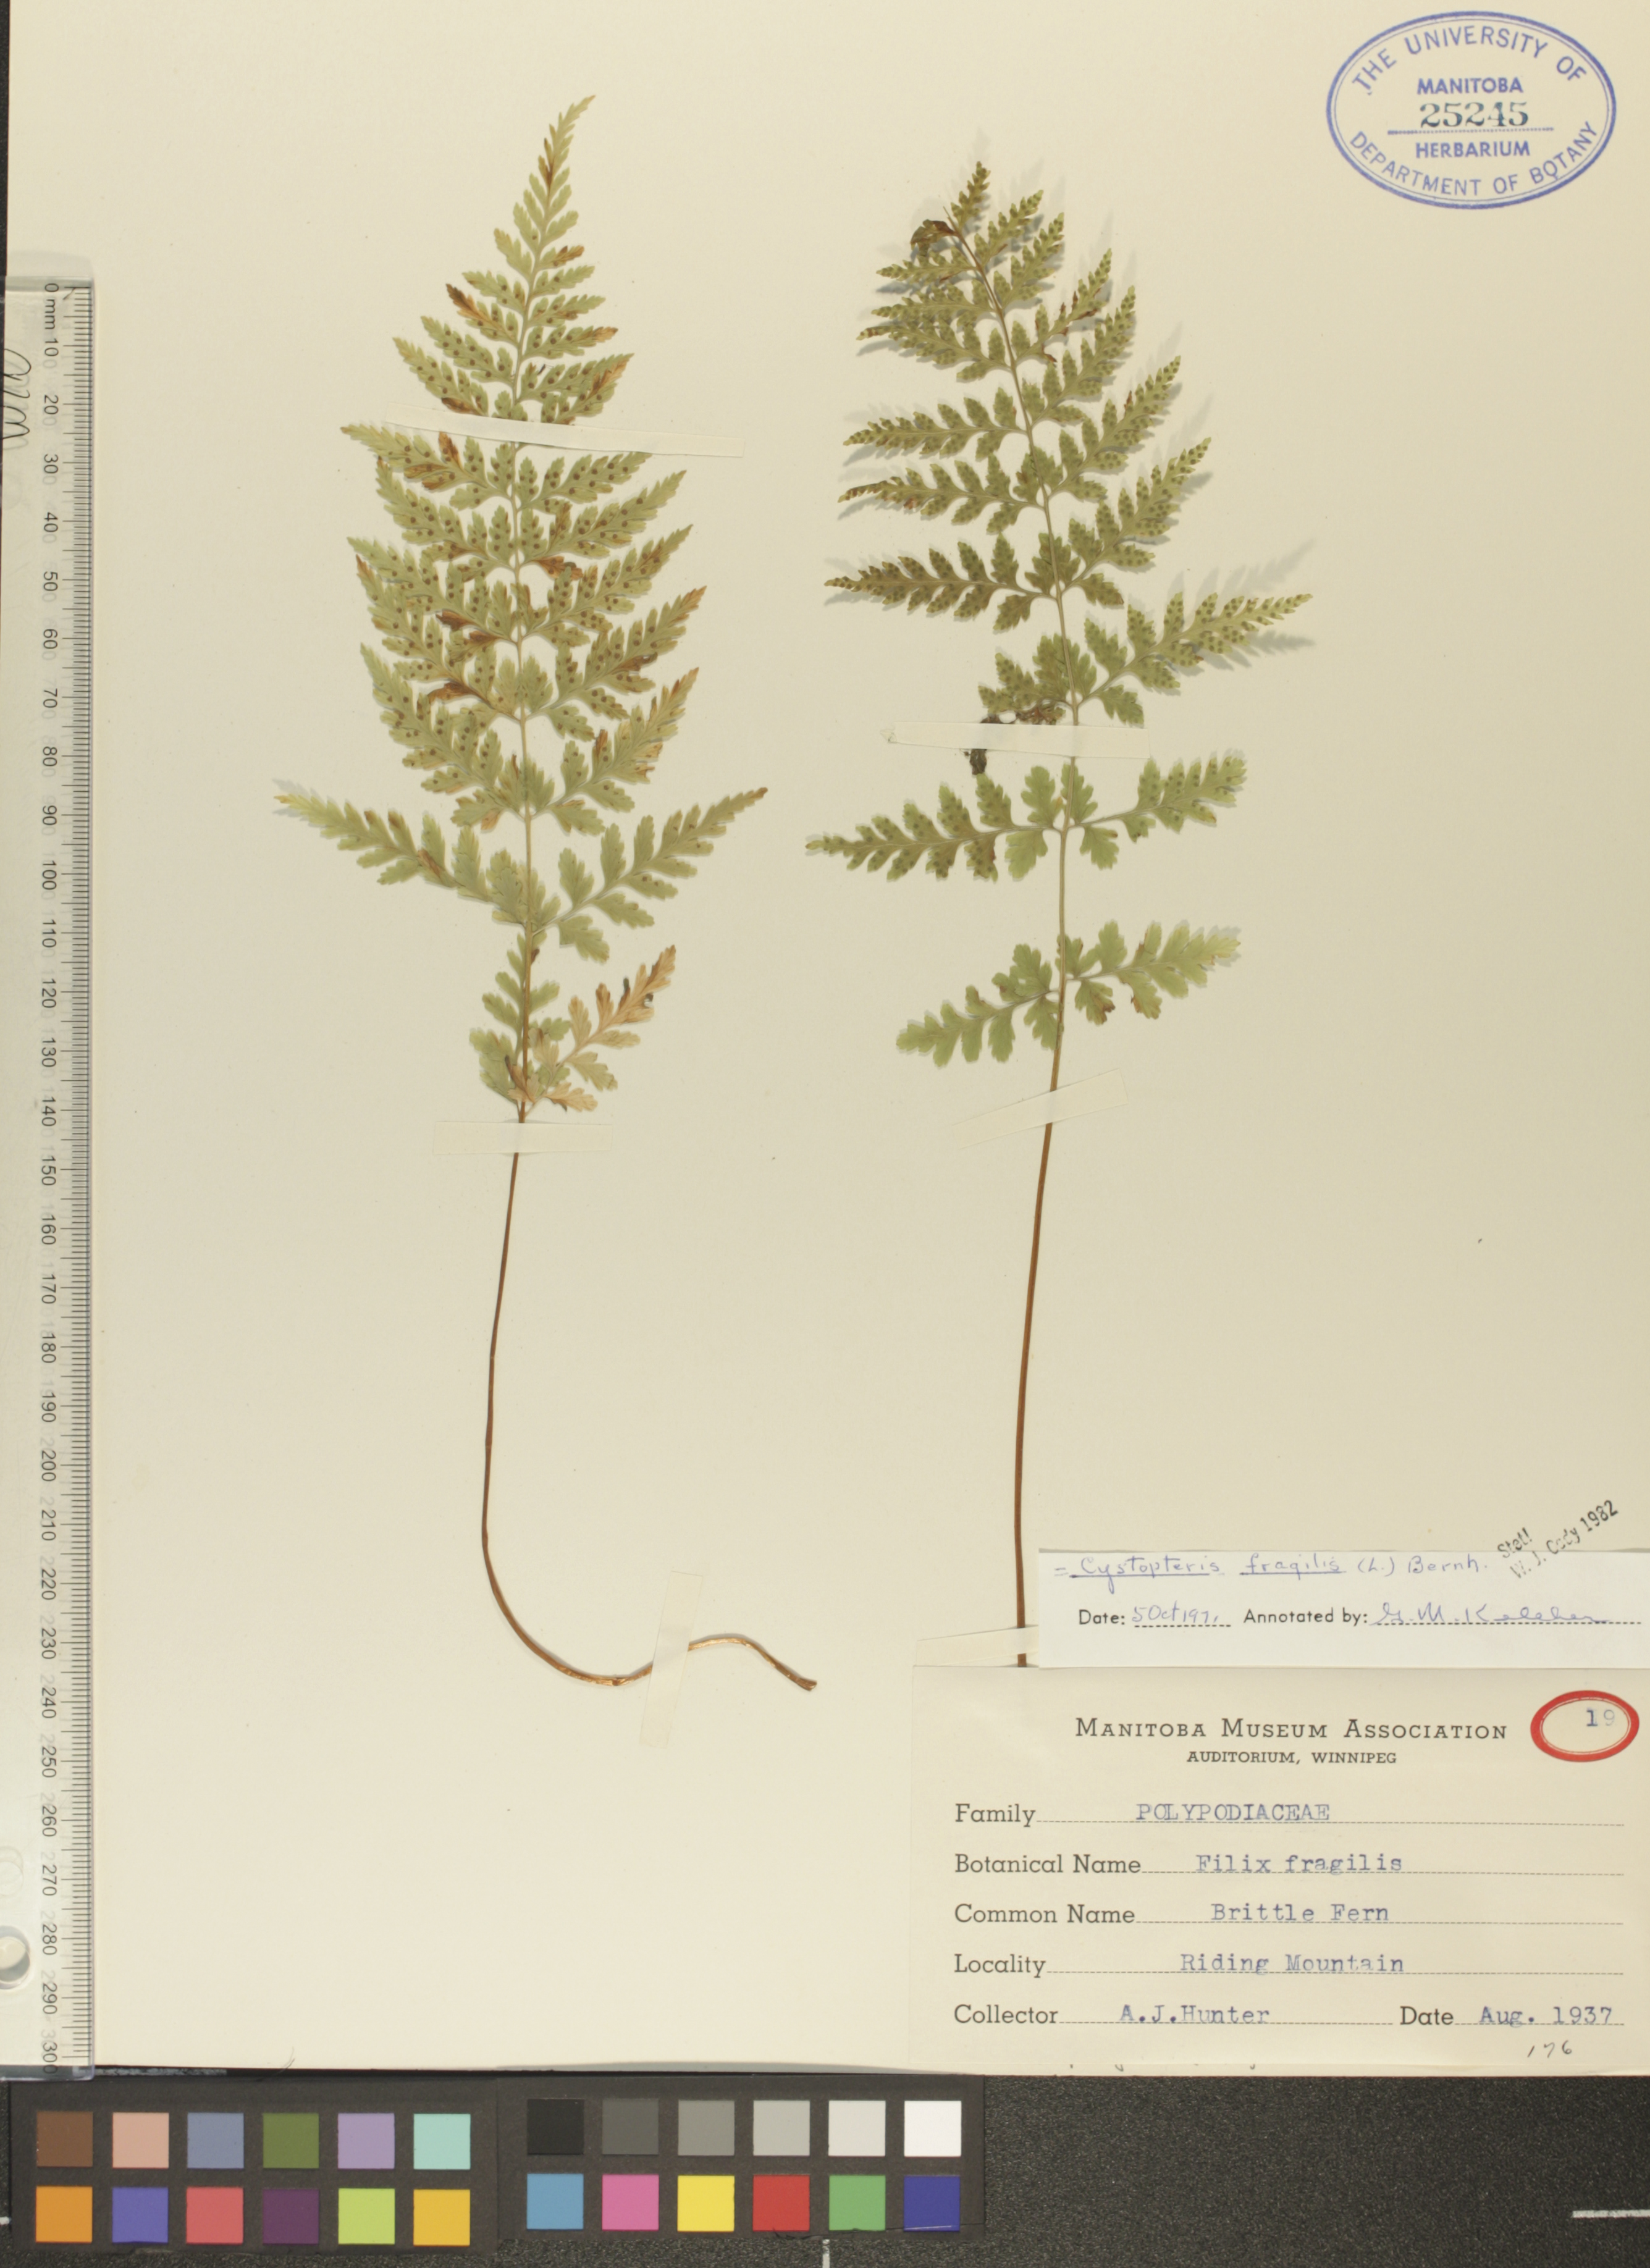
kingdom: Plantae
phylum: Tracheophyta
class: Polypodiopsida
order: Polypodiales
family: Cystopteridaceae
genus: Cystopteris
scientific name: Cystopteris tenuis
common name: Mackay's brittle fern
